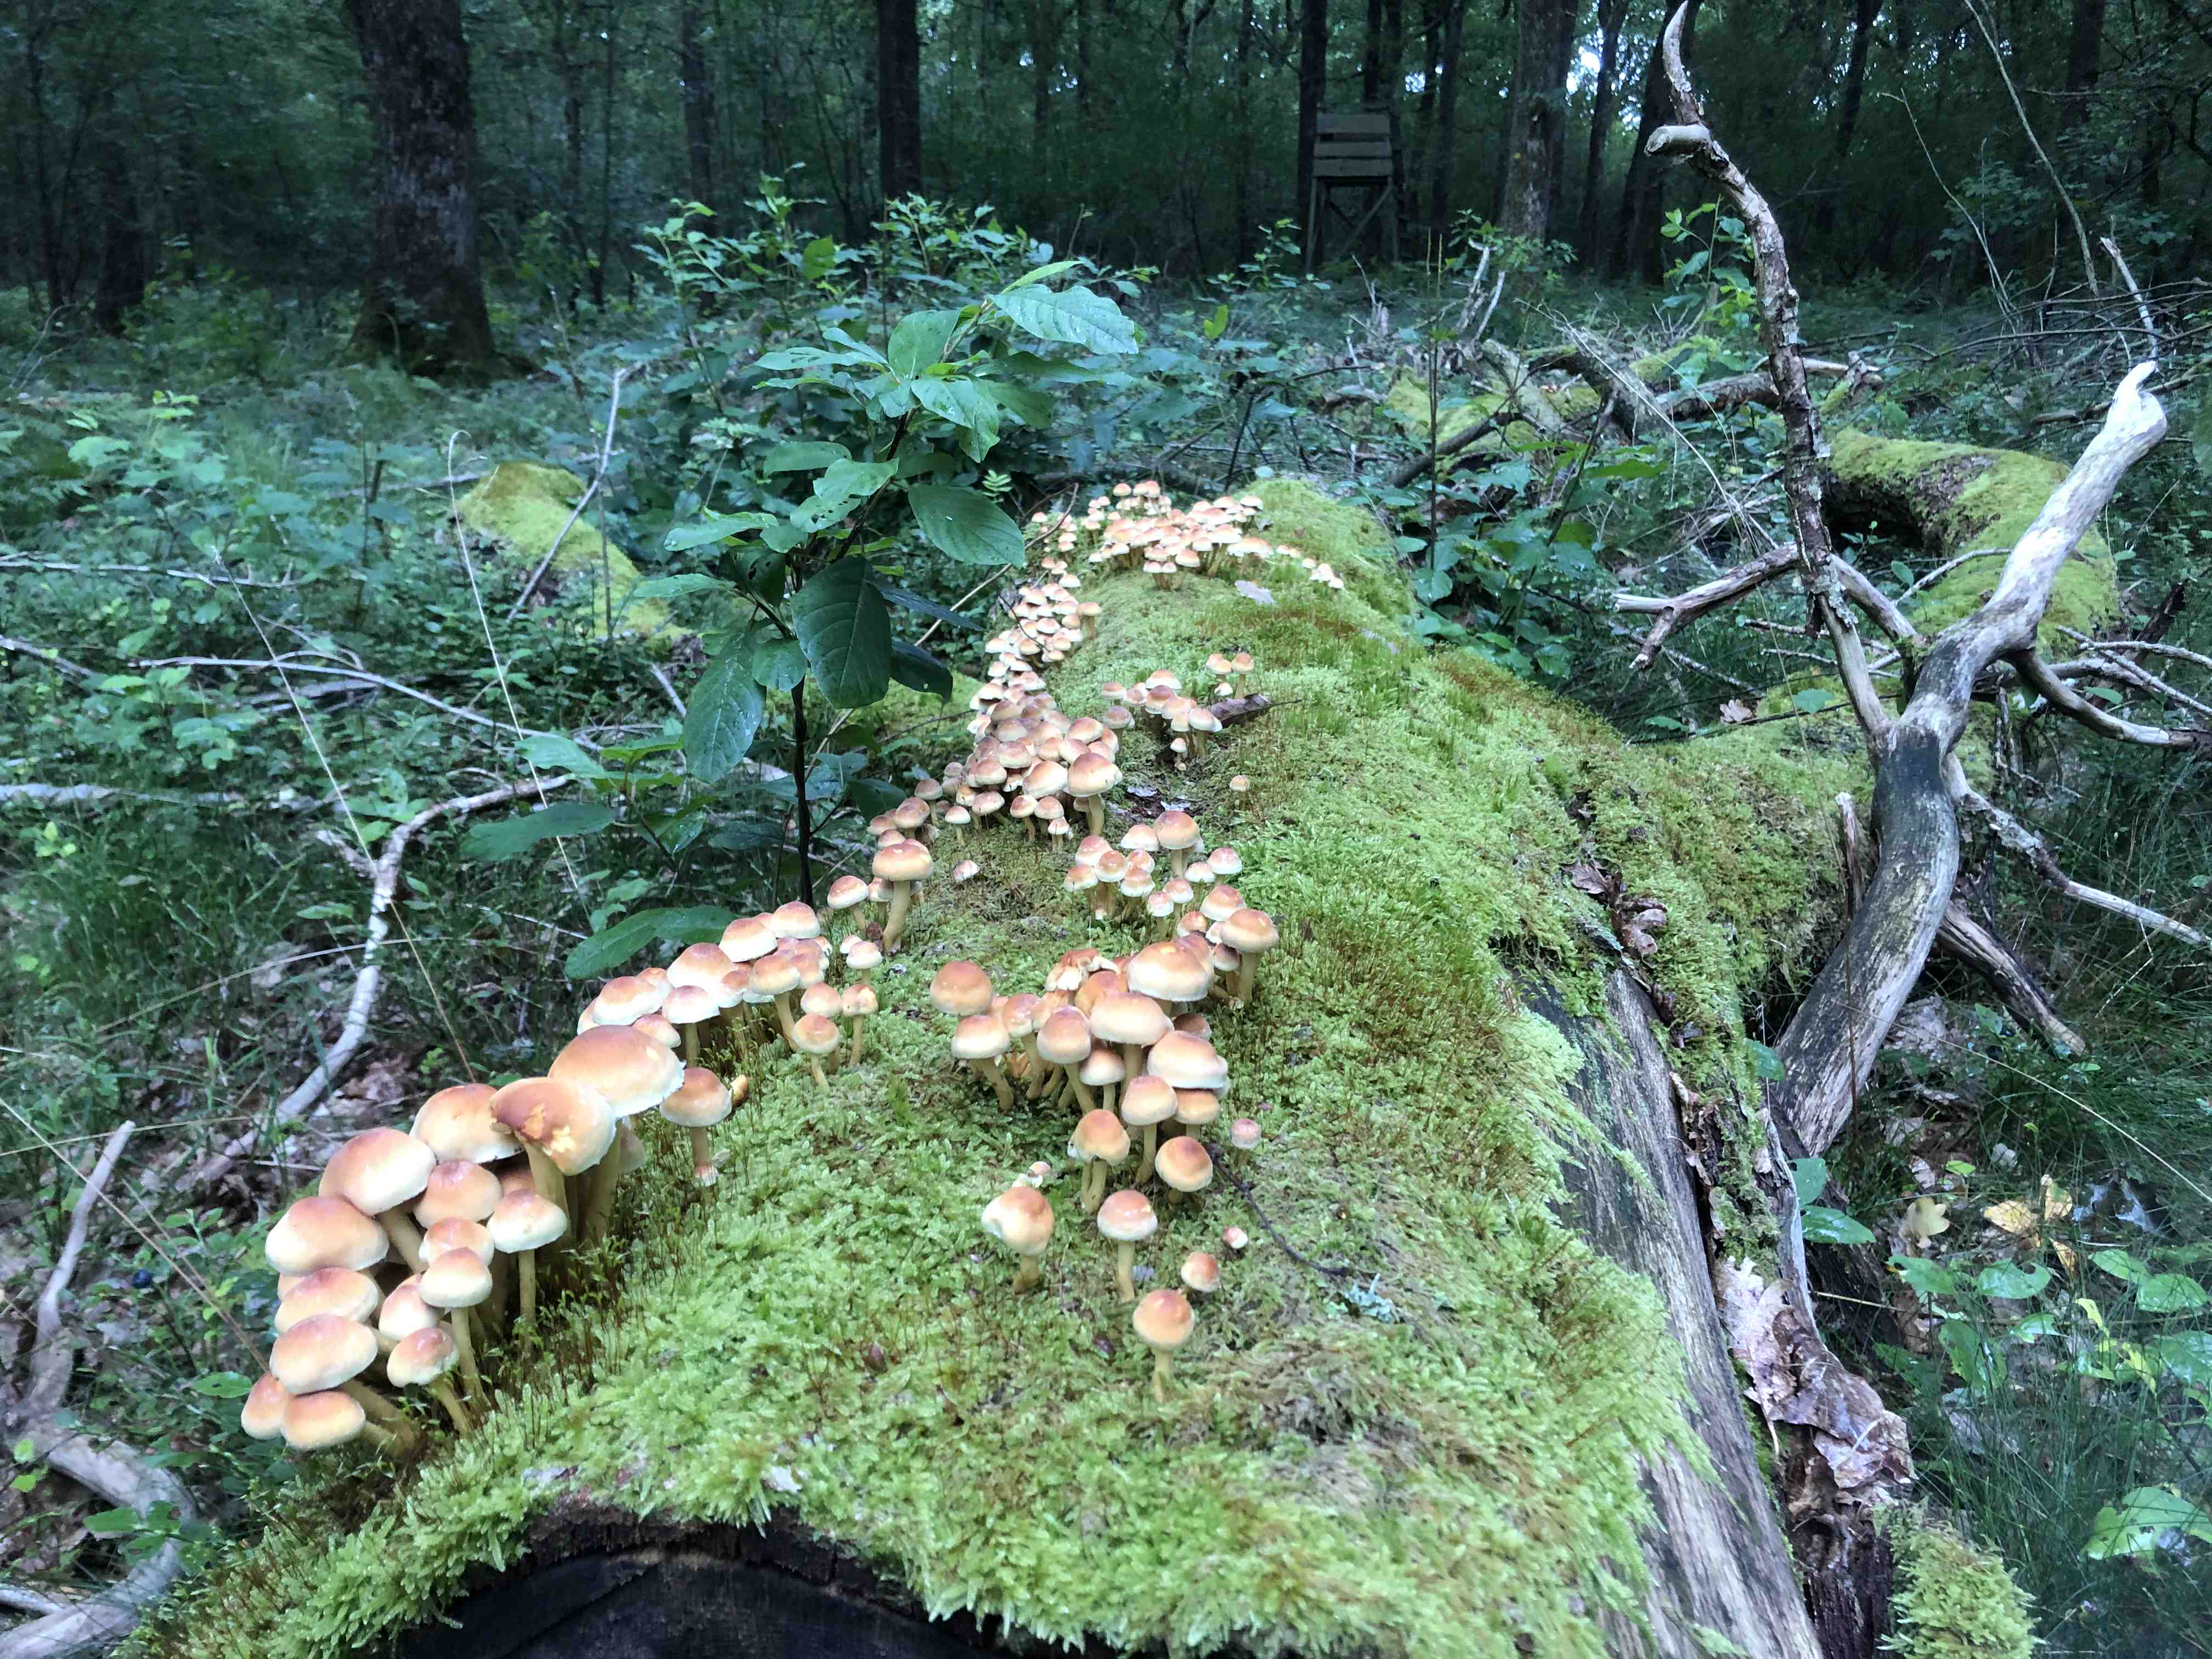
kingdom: Fungi
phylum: Basidiomycota
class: Agaricomycetes
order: Agaricales
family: Strophariaceae
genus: Hypholoma
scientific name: Hypholoma fasciculare
